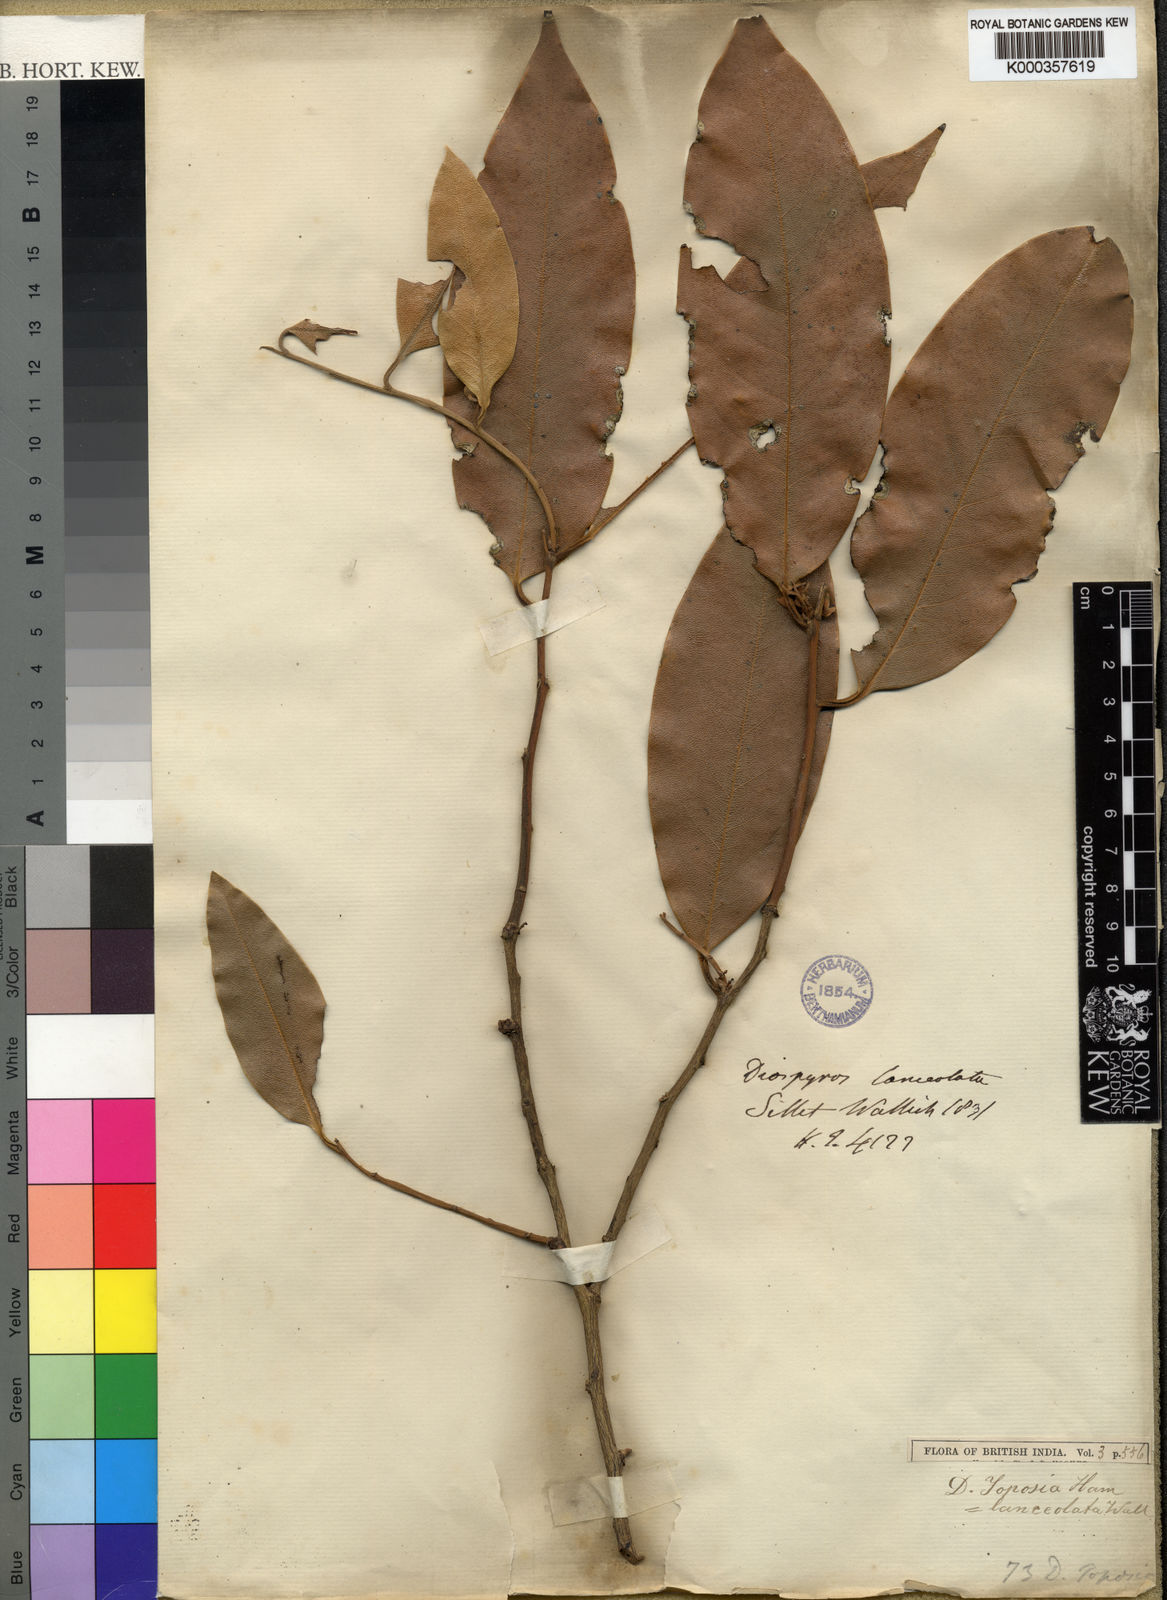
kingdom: Plantae
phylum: Tracheophyta
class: Magnoliopsida
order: Ericales
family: Ebenaceae
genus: Diospyros
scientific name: Diospyros toposia
